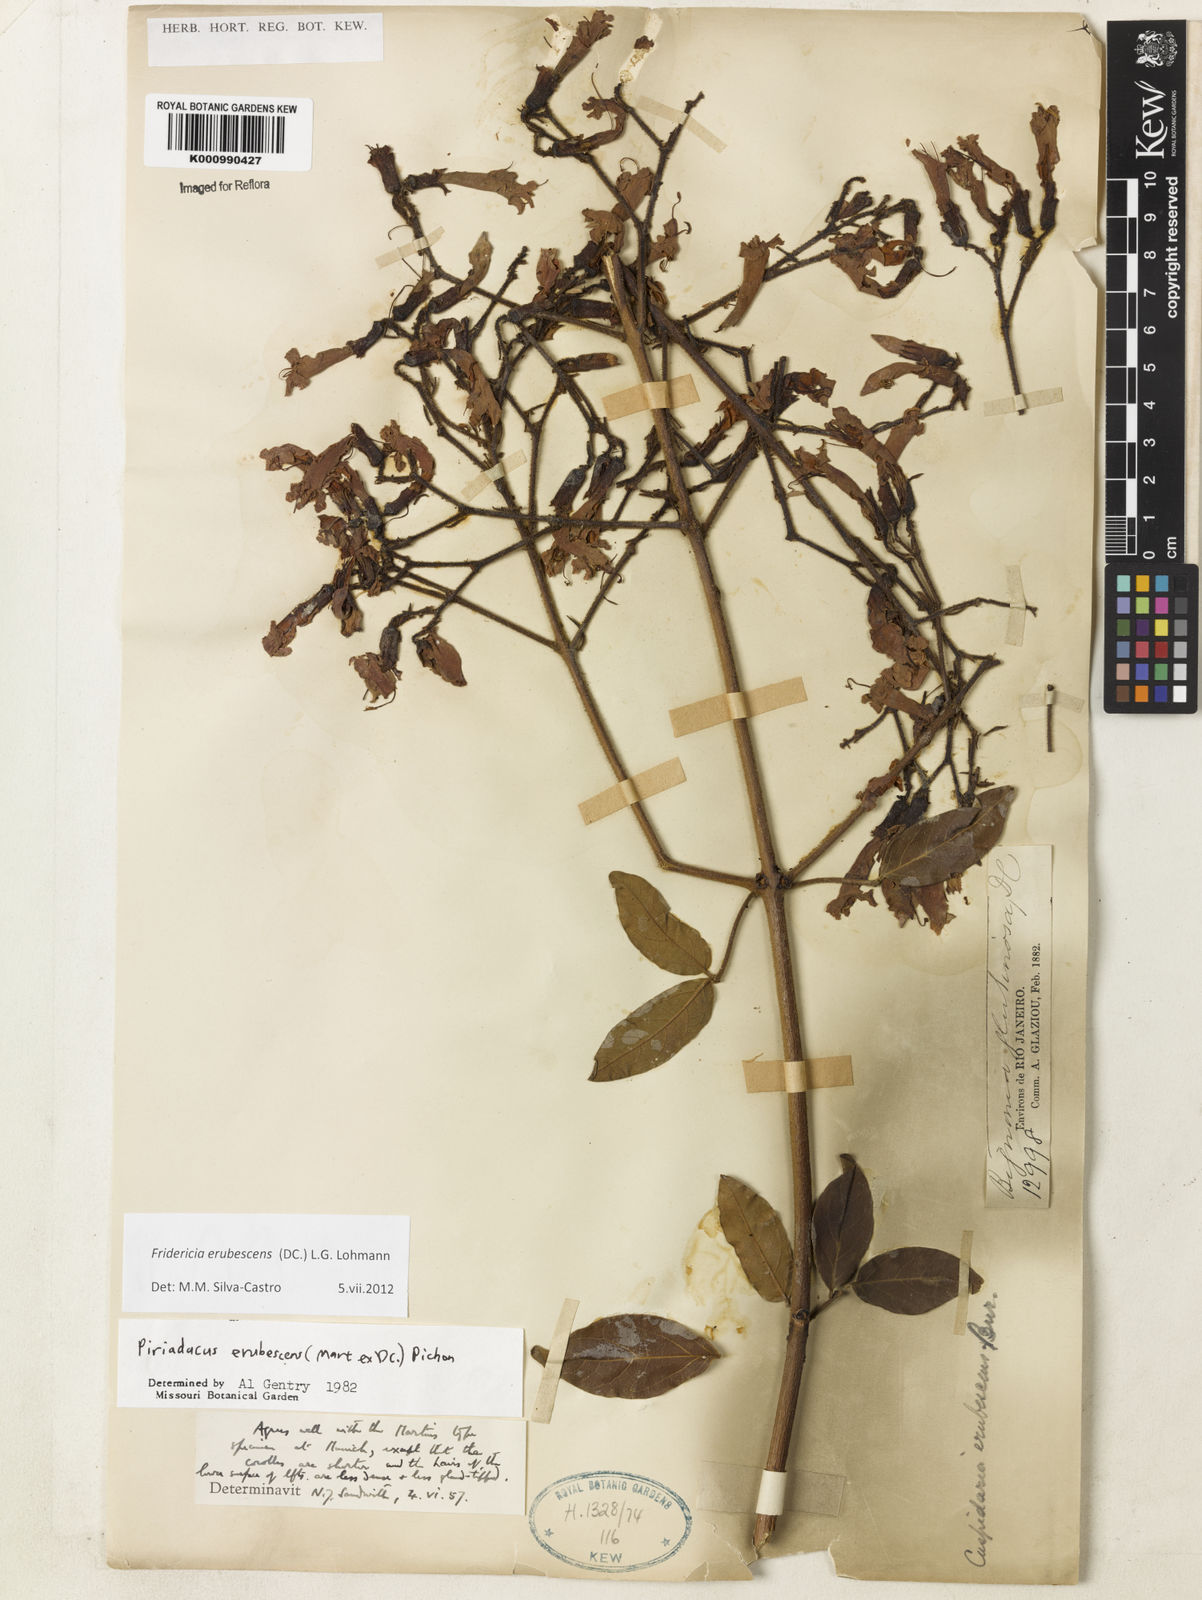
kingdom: Plantae
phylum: Tracheophyta
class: Magnoliopsida
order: Lamiales
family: Bignoniaceae
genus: Fridericia
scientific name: Fridericia erubescens
